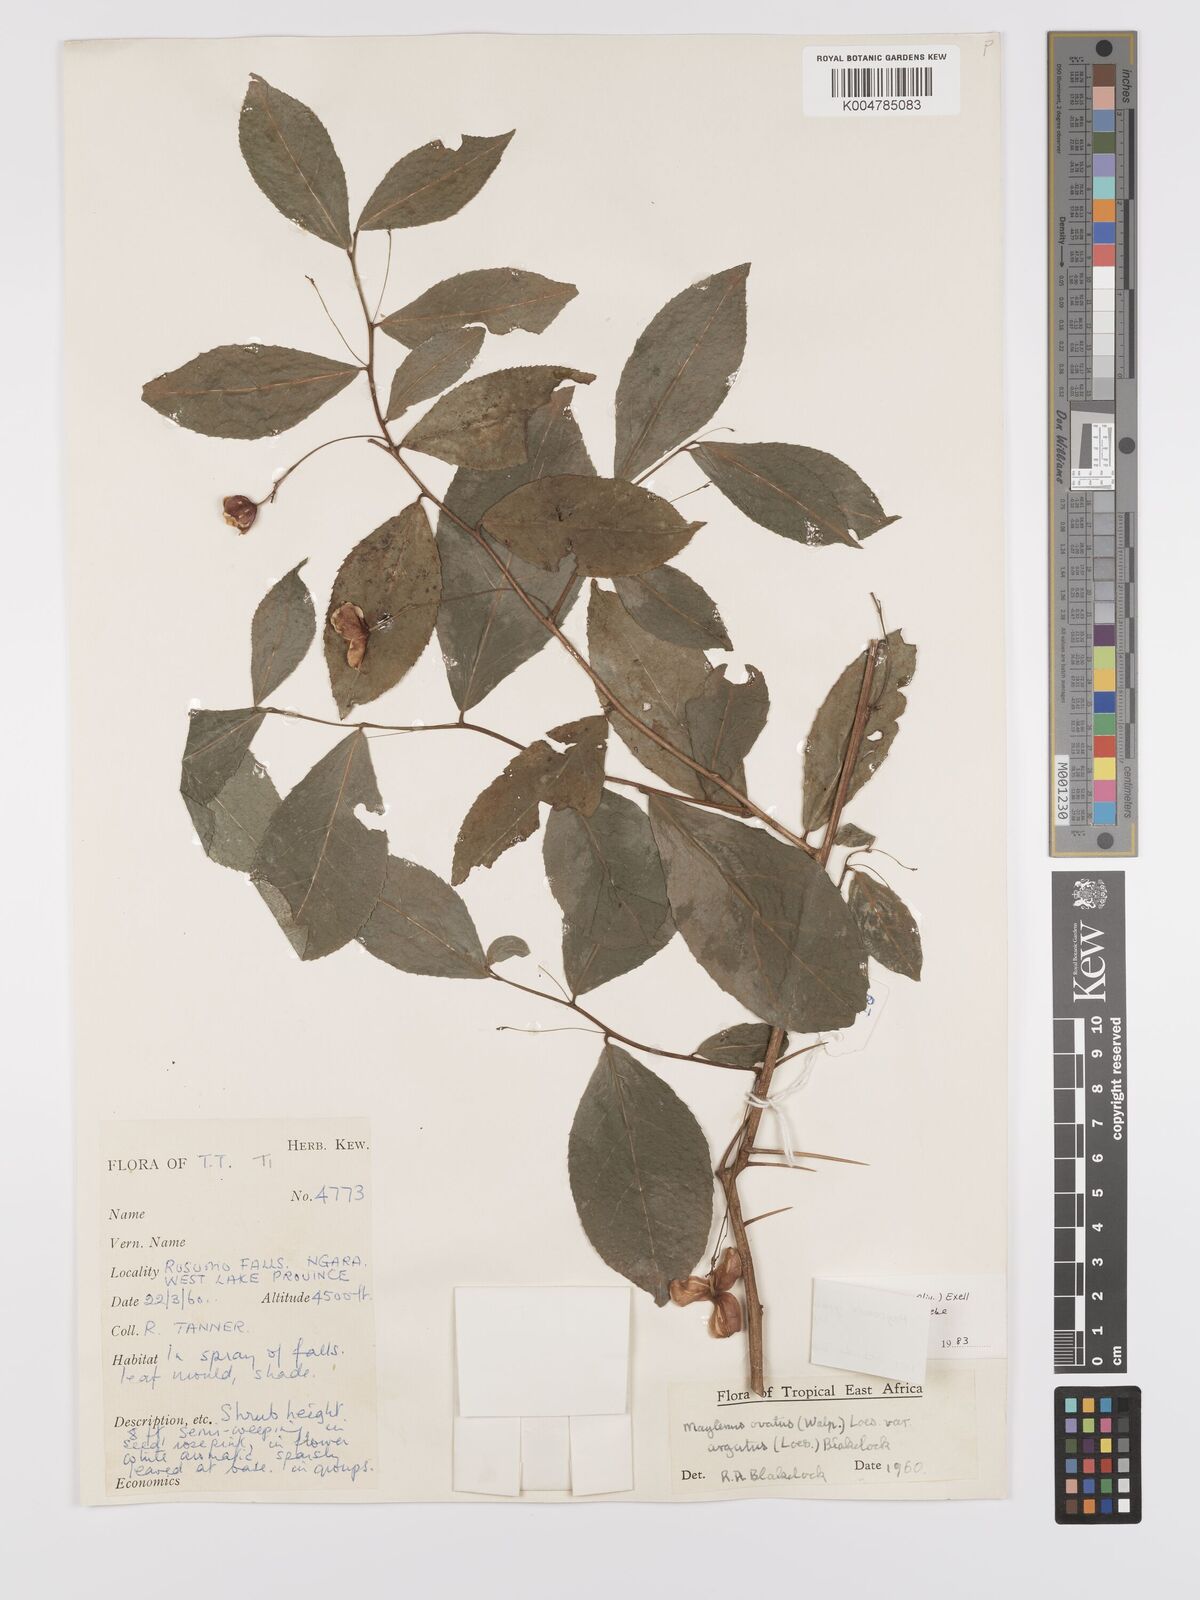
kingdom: Plantae
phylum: Tracheophyta
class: Magnoliopsida
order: Celastrales
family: Celastraceae
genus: Gymnosporia
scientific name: Gymnosporia gracilipes
